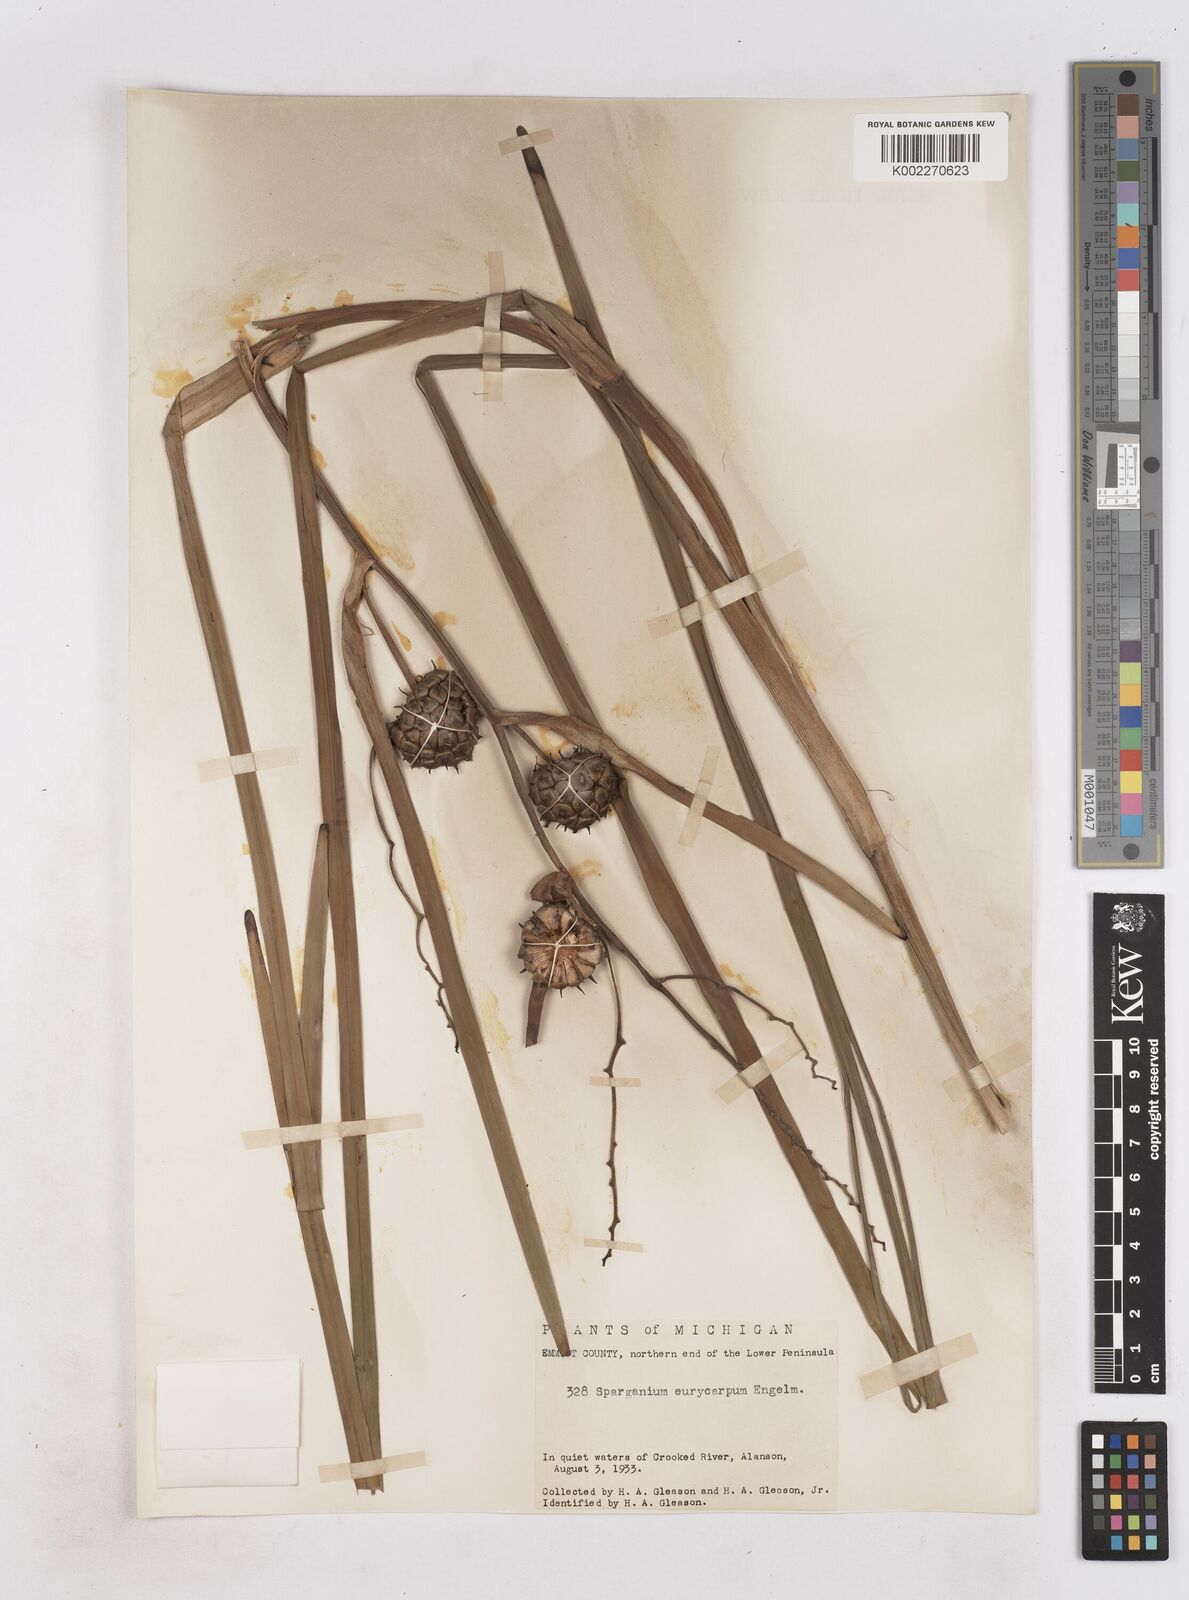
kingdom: Plantae
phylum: Tracheophyta
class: Liliopsida
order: Poales
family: Typhaceae
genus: Sparganium
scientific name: Sparganium eurycarpum
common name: Broad-fruited burreed
